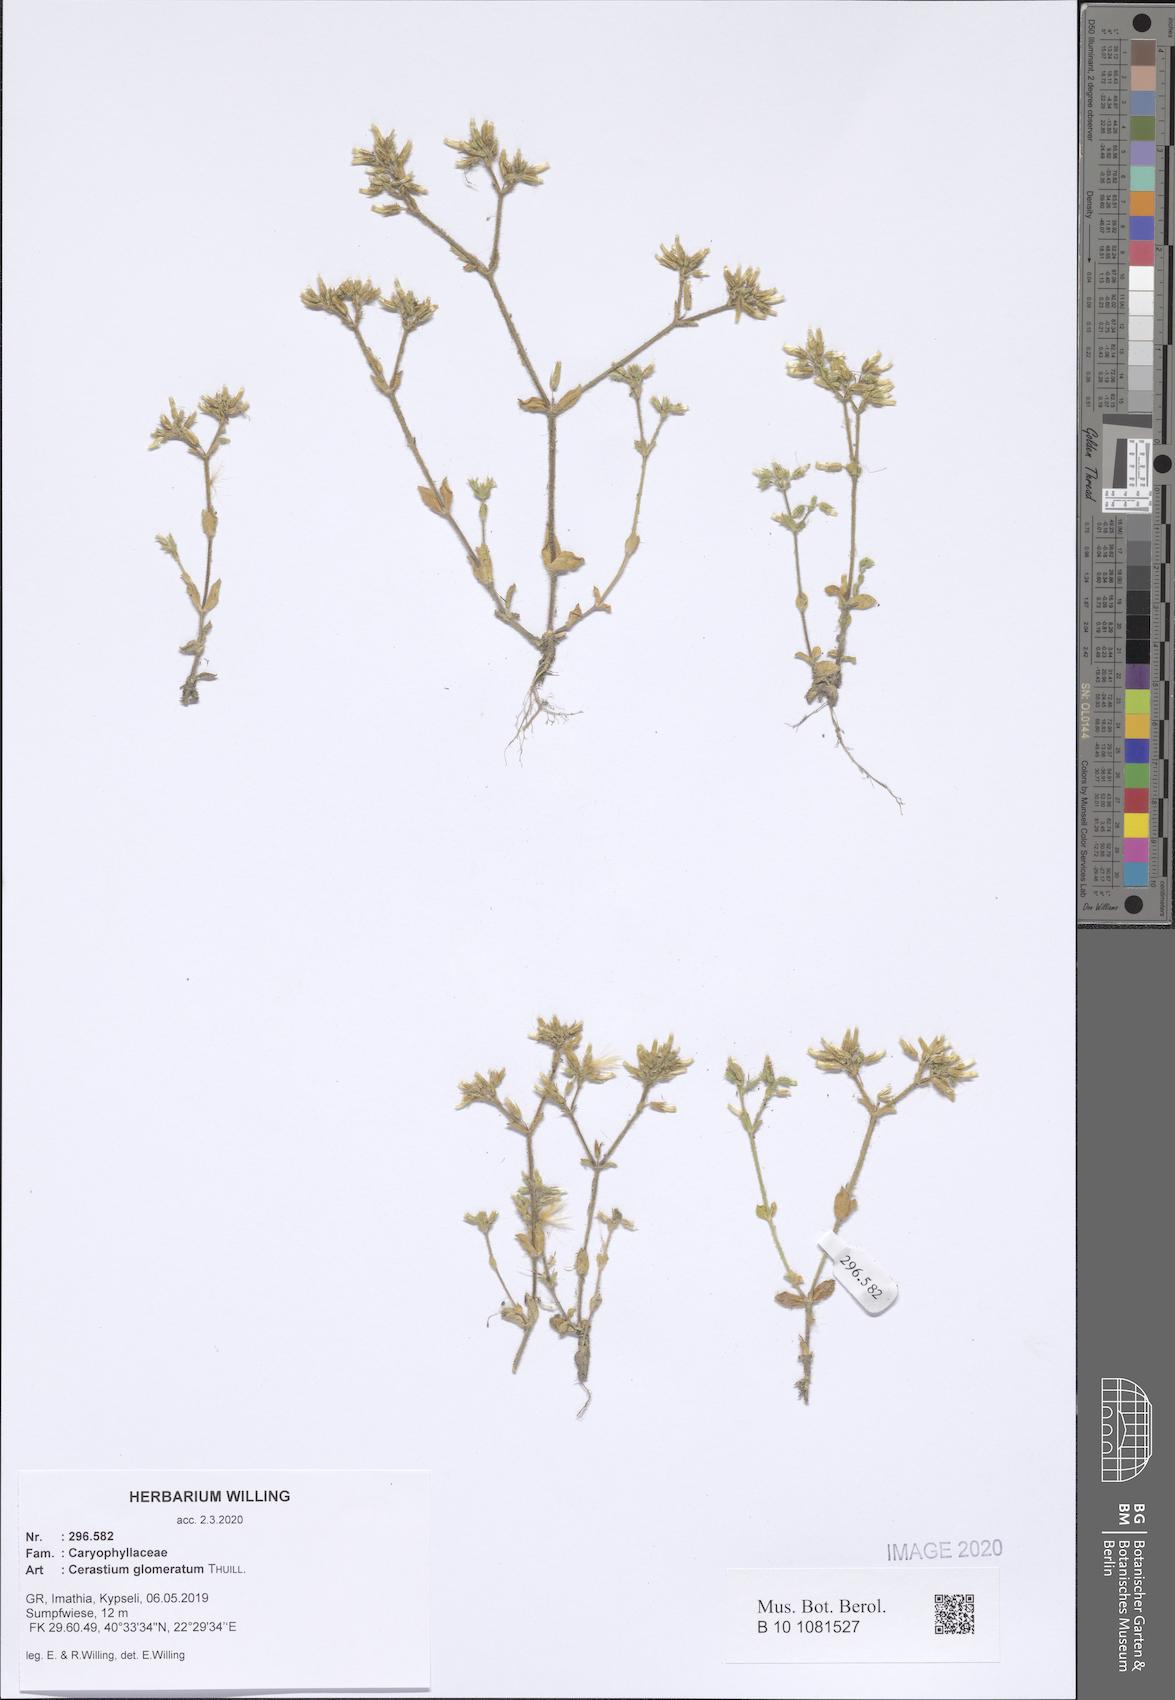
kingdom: Plantae
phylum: Tracheophyta
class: Magnoliopsida
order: Caryophyllales
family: Caryophyllaceae
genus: Cerastium
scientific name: Cerastium glomeratum
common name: Sticky chickweed
